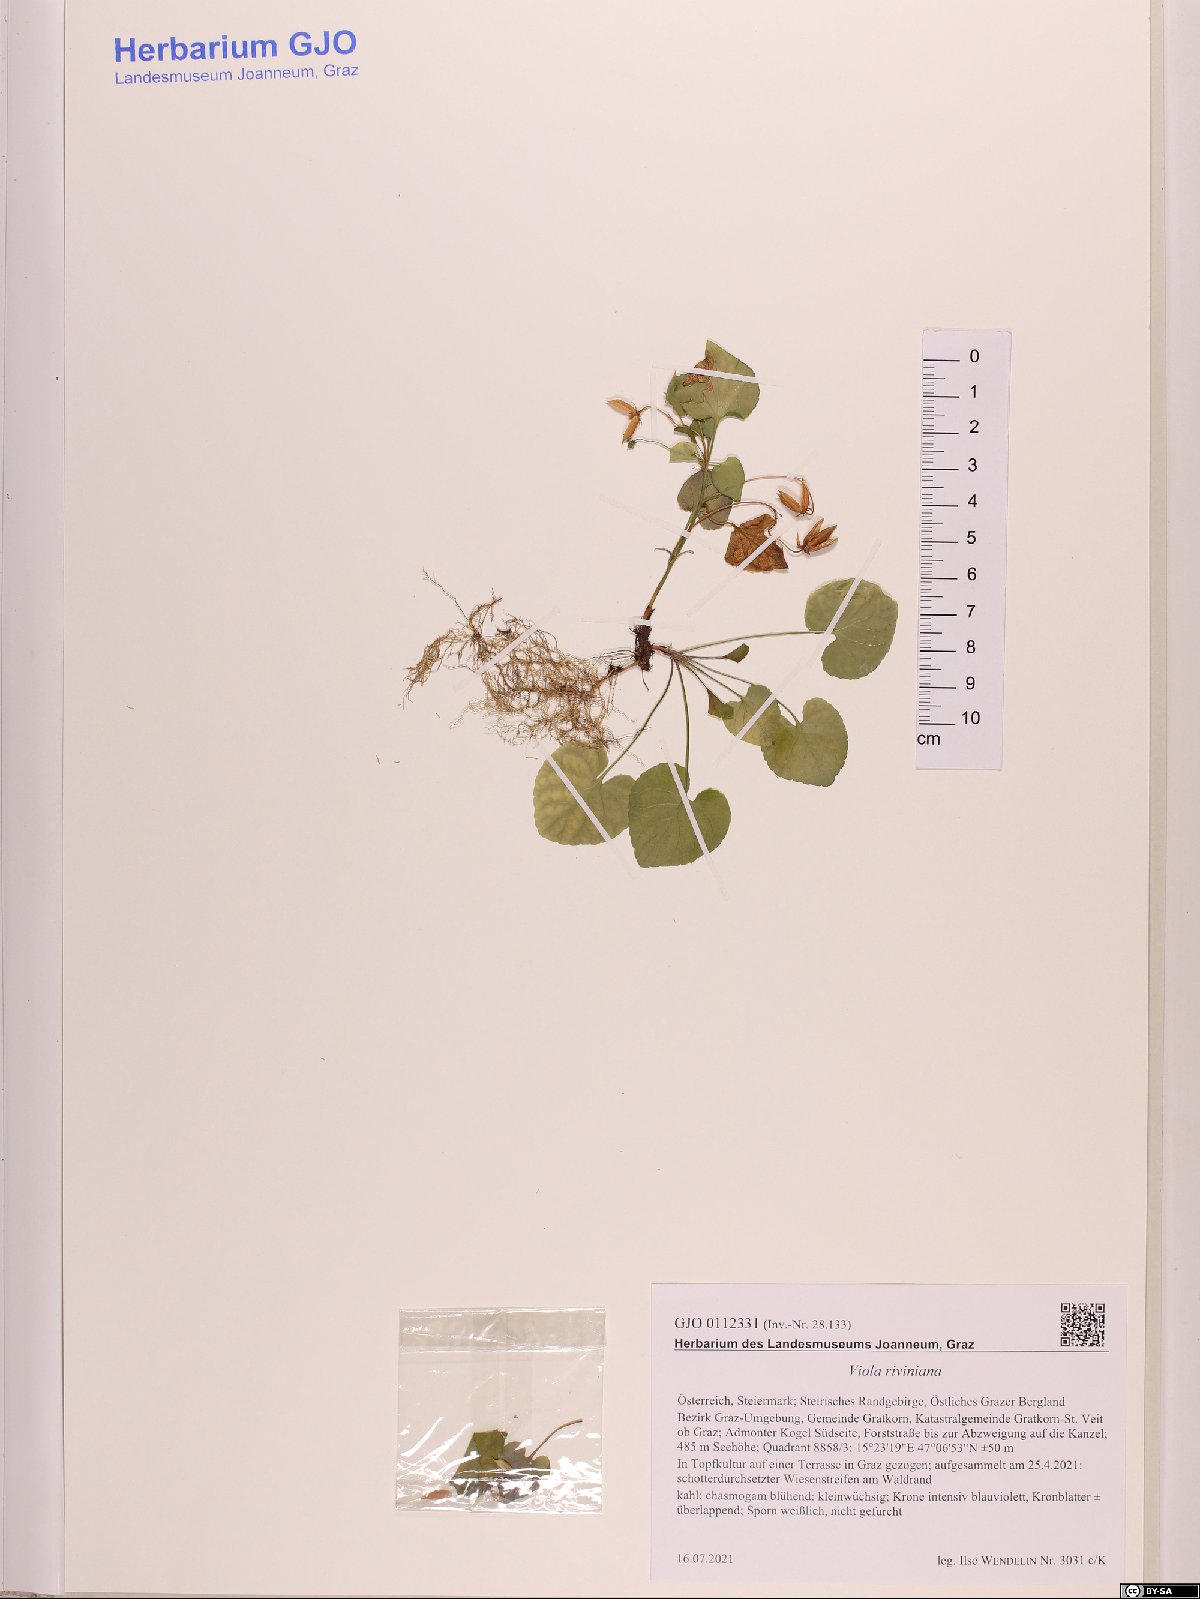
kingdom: Plantae
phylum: Tracheophyta
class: Magnoliopsida
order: Malpighiales
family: Violaceae
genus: Viola
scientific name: Viola riviniana
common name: Common dog-violet
